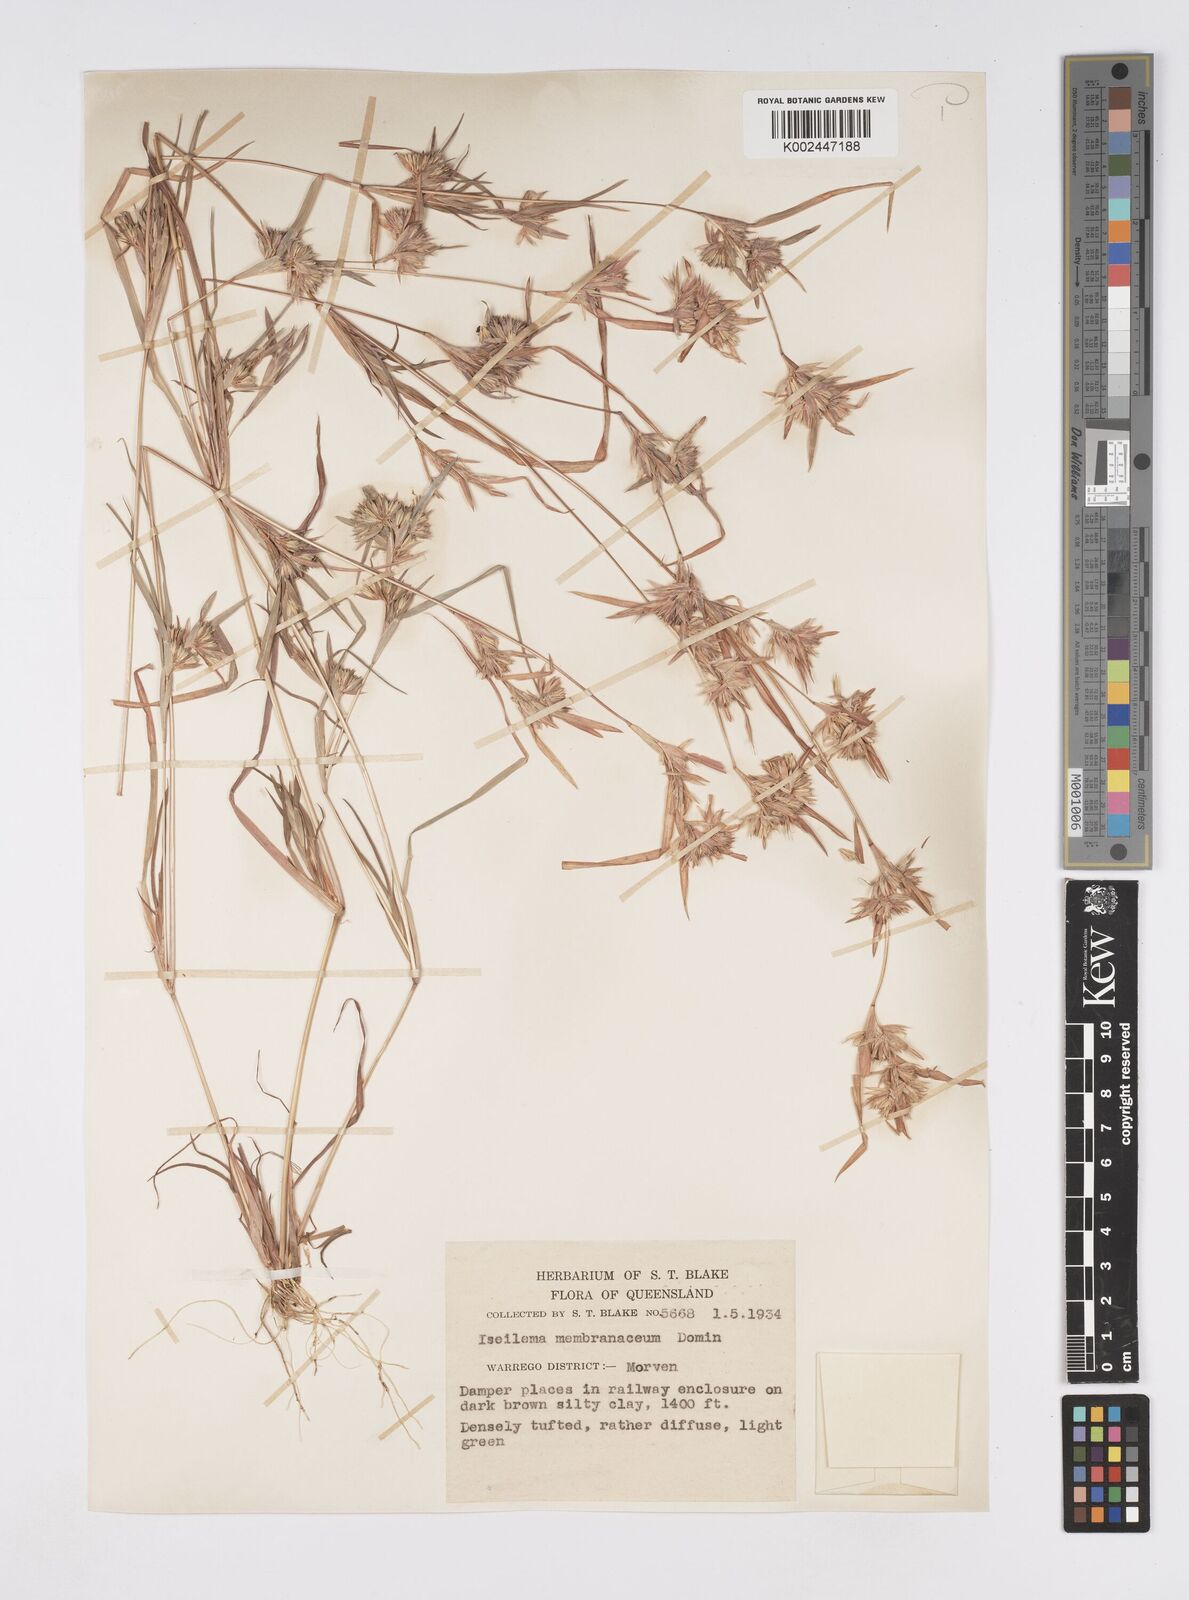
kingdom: Plantae
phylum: Tracheophyta
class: Liliopsida
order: Poales
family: Poaceae
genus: Iseilema
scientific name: Iseilema membranaceum
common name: Small flinders grass
